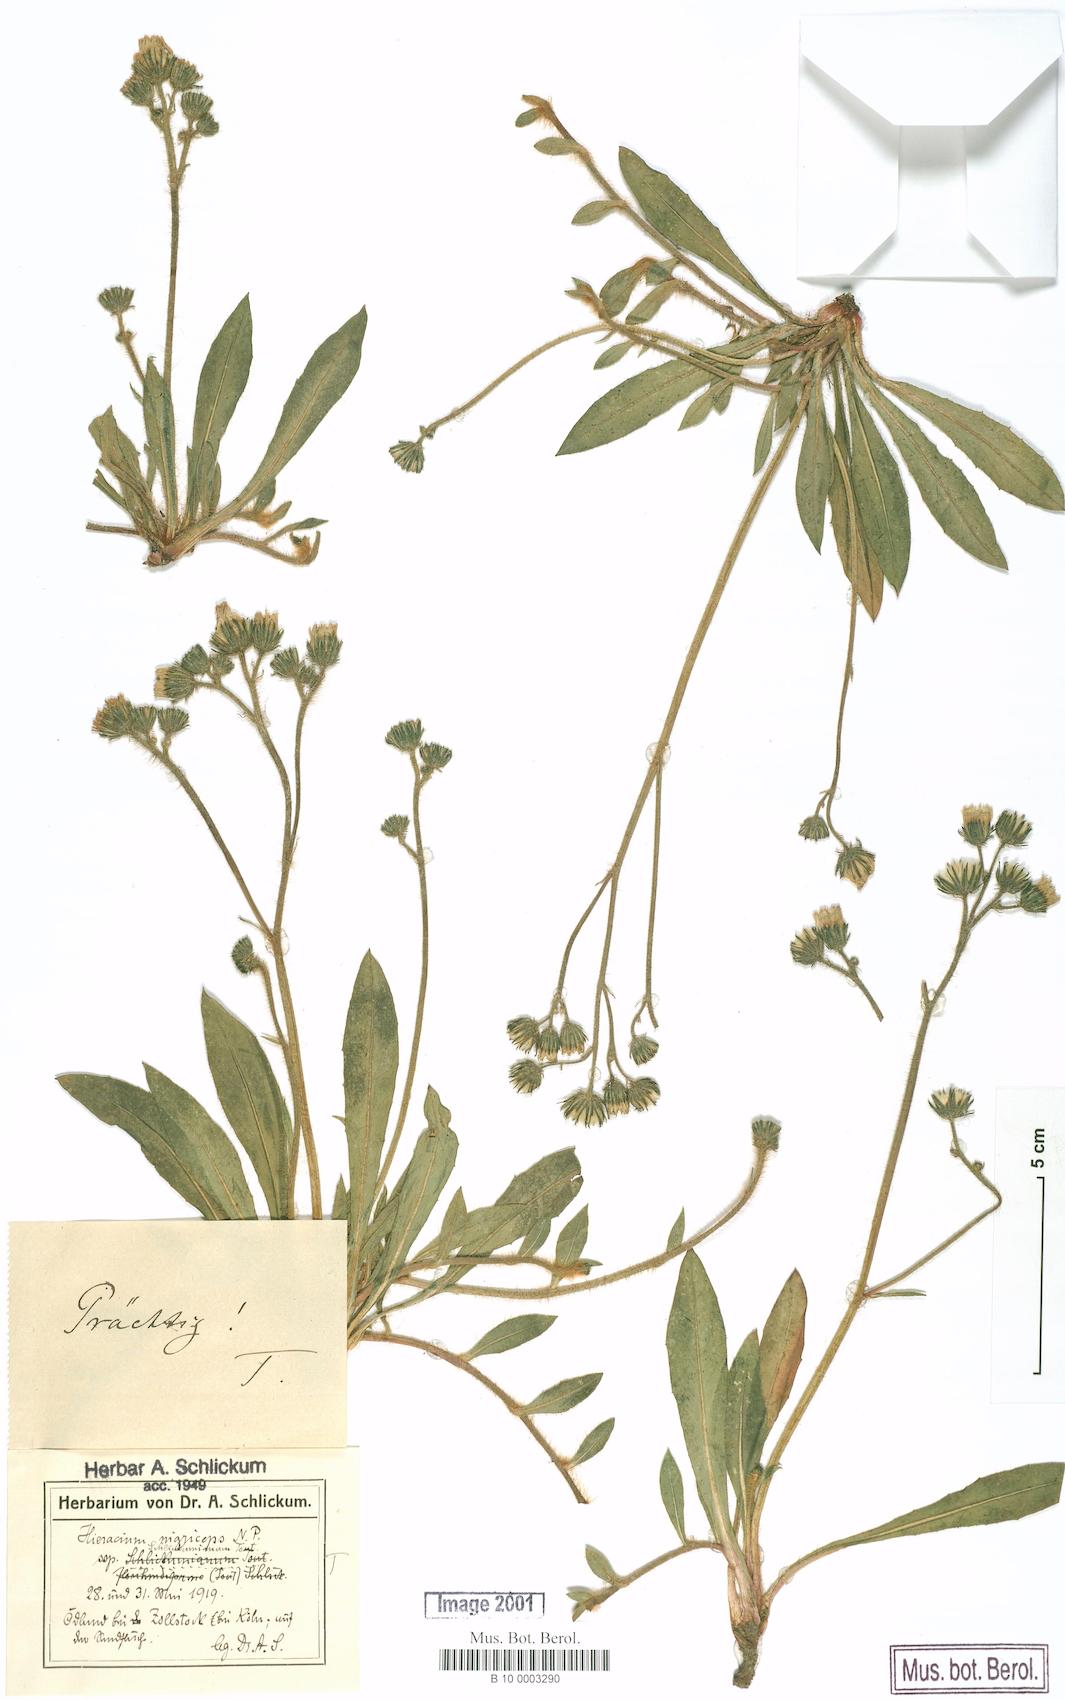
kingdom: Plantae
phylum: Tracheophyta
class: Magnoliopsida
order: Asterales
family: Asteraceae
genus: Pilosella
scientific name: Pilosella iserana
